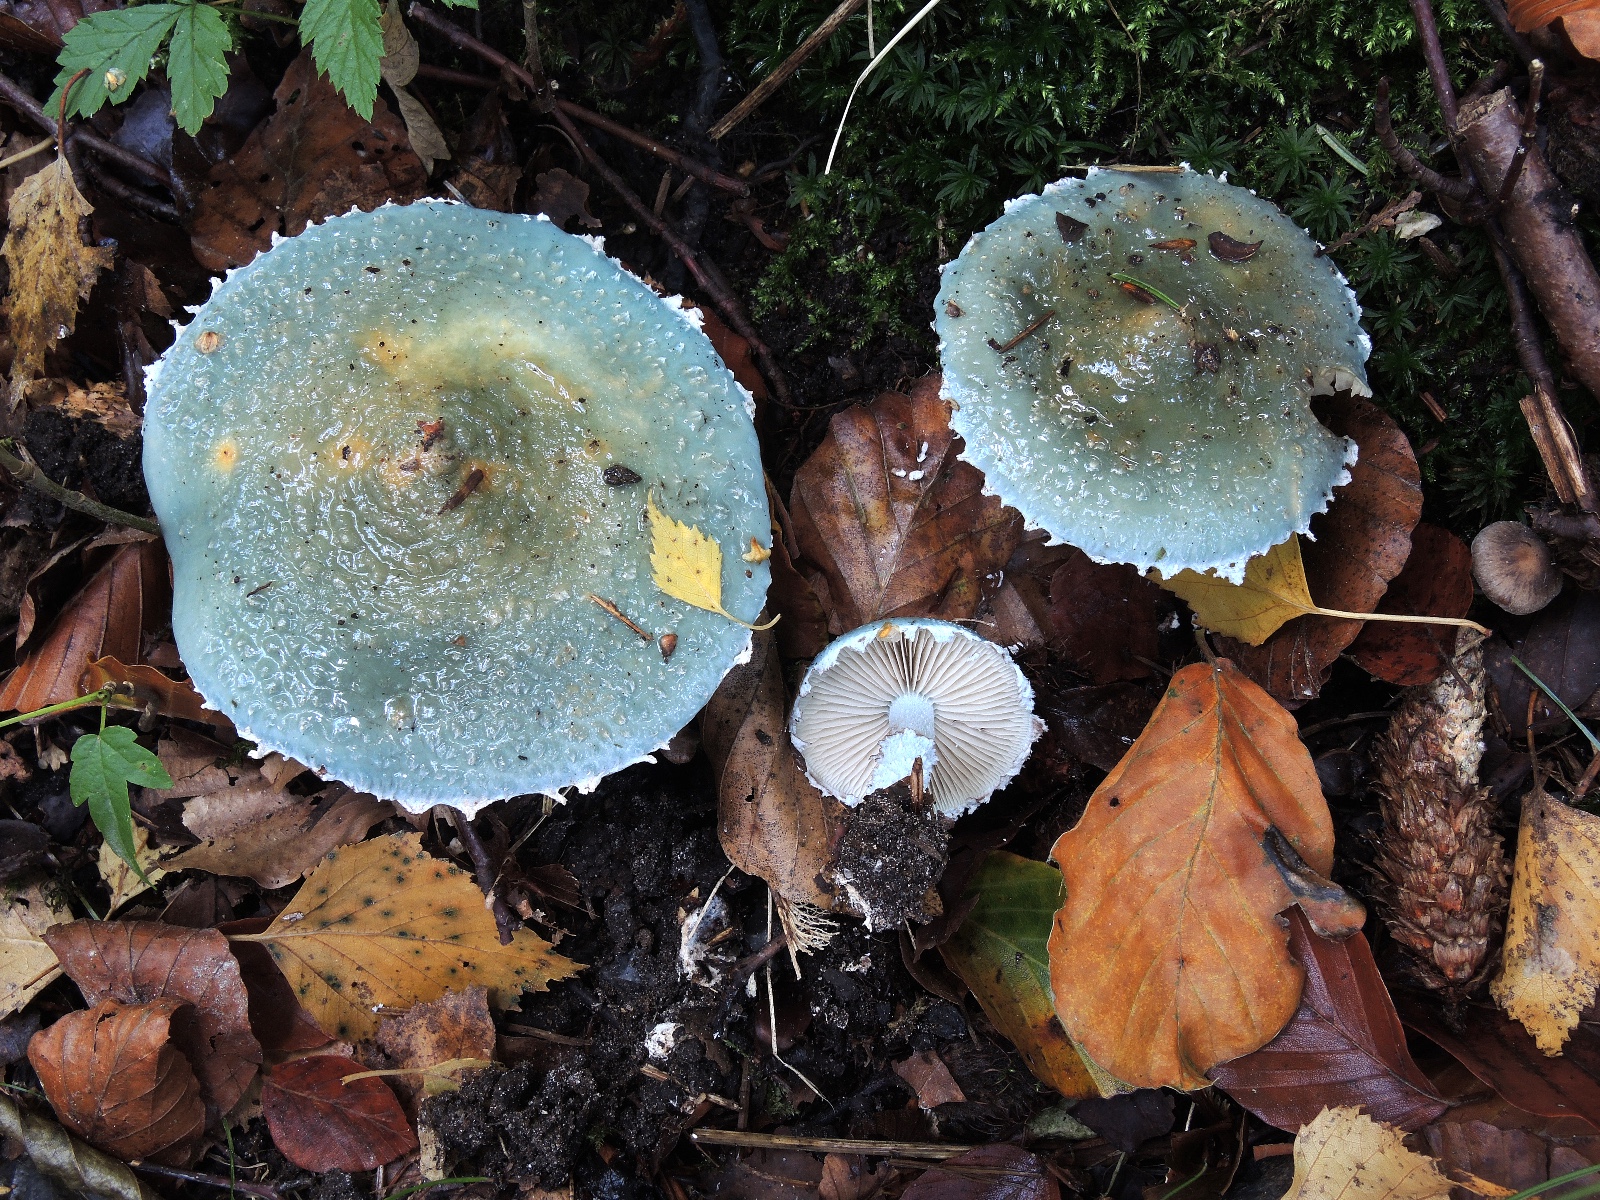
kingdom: Fungi
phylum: Basidiomycota
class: Agaricomycetes
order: Agaricales
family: Strophariaceae
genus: Stropharia
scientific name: Stropharia cyanea
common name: blågrøn bredblad
